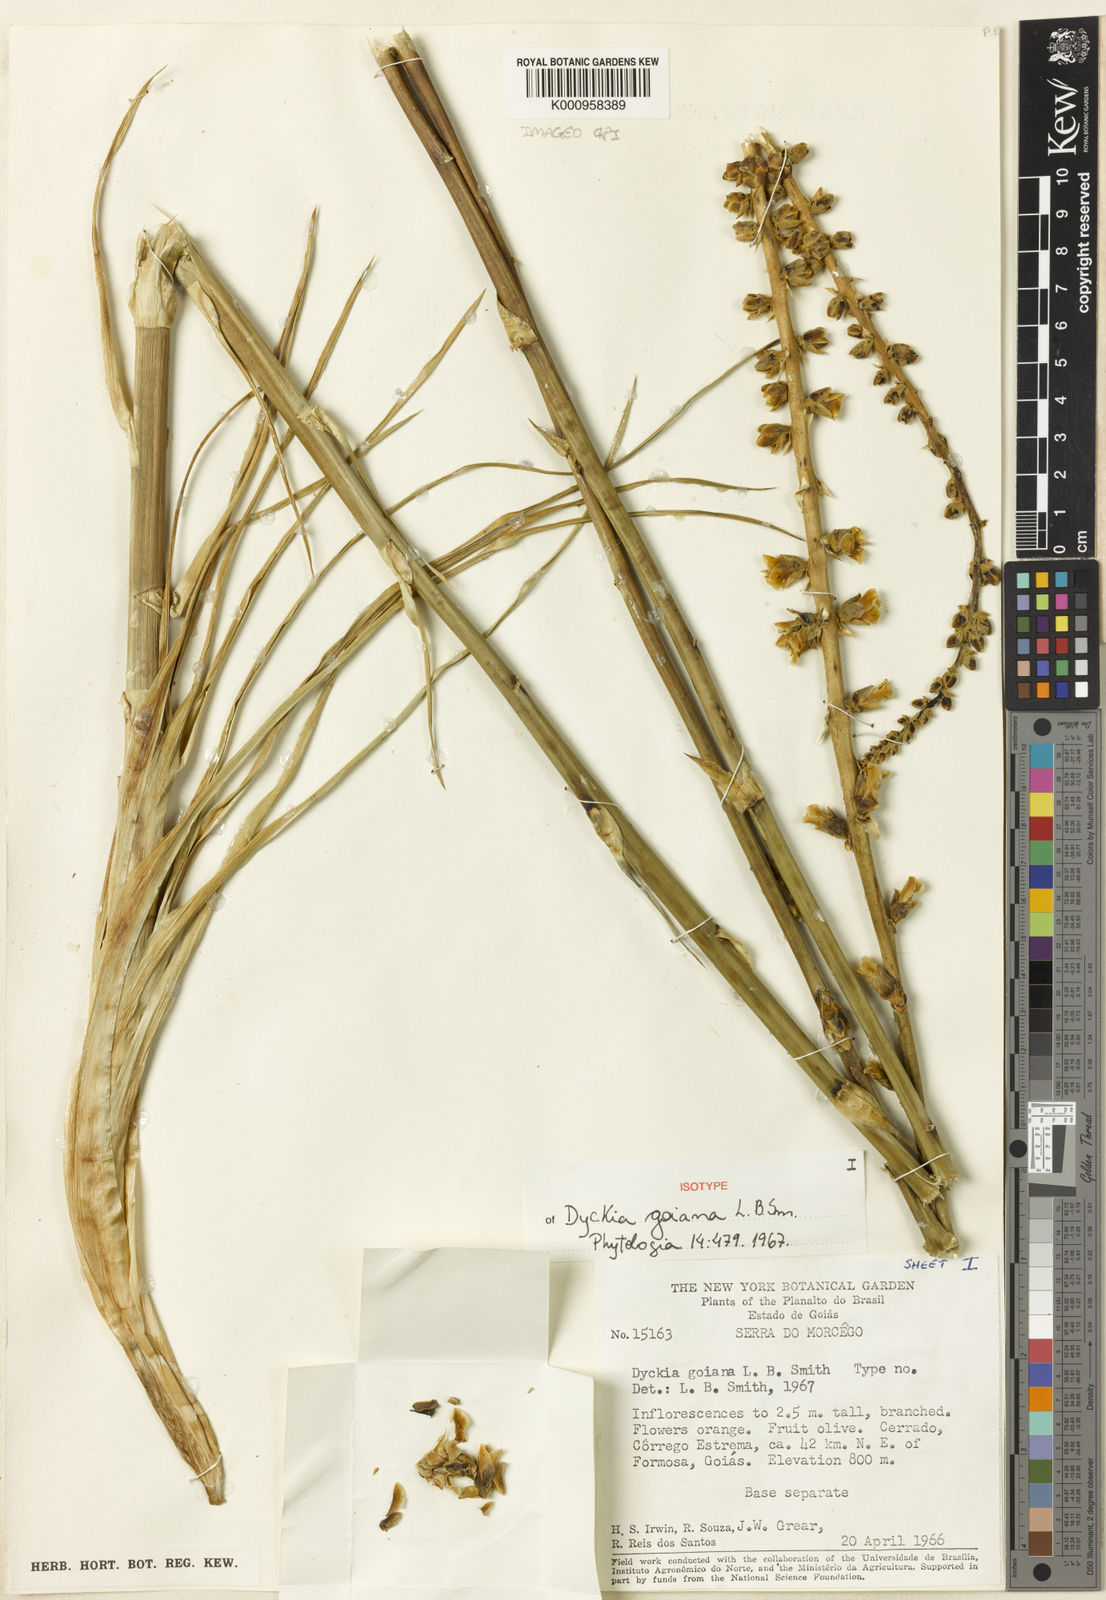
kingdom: Plantae
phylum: Tracheophyta
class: Liliopsida
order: Poales
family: Bromeliaceae
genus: Dyckia
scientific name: Dyckia goiana
